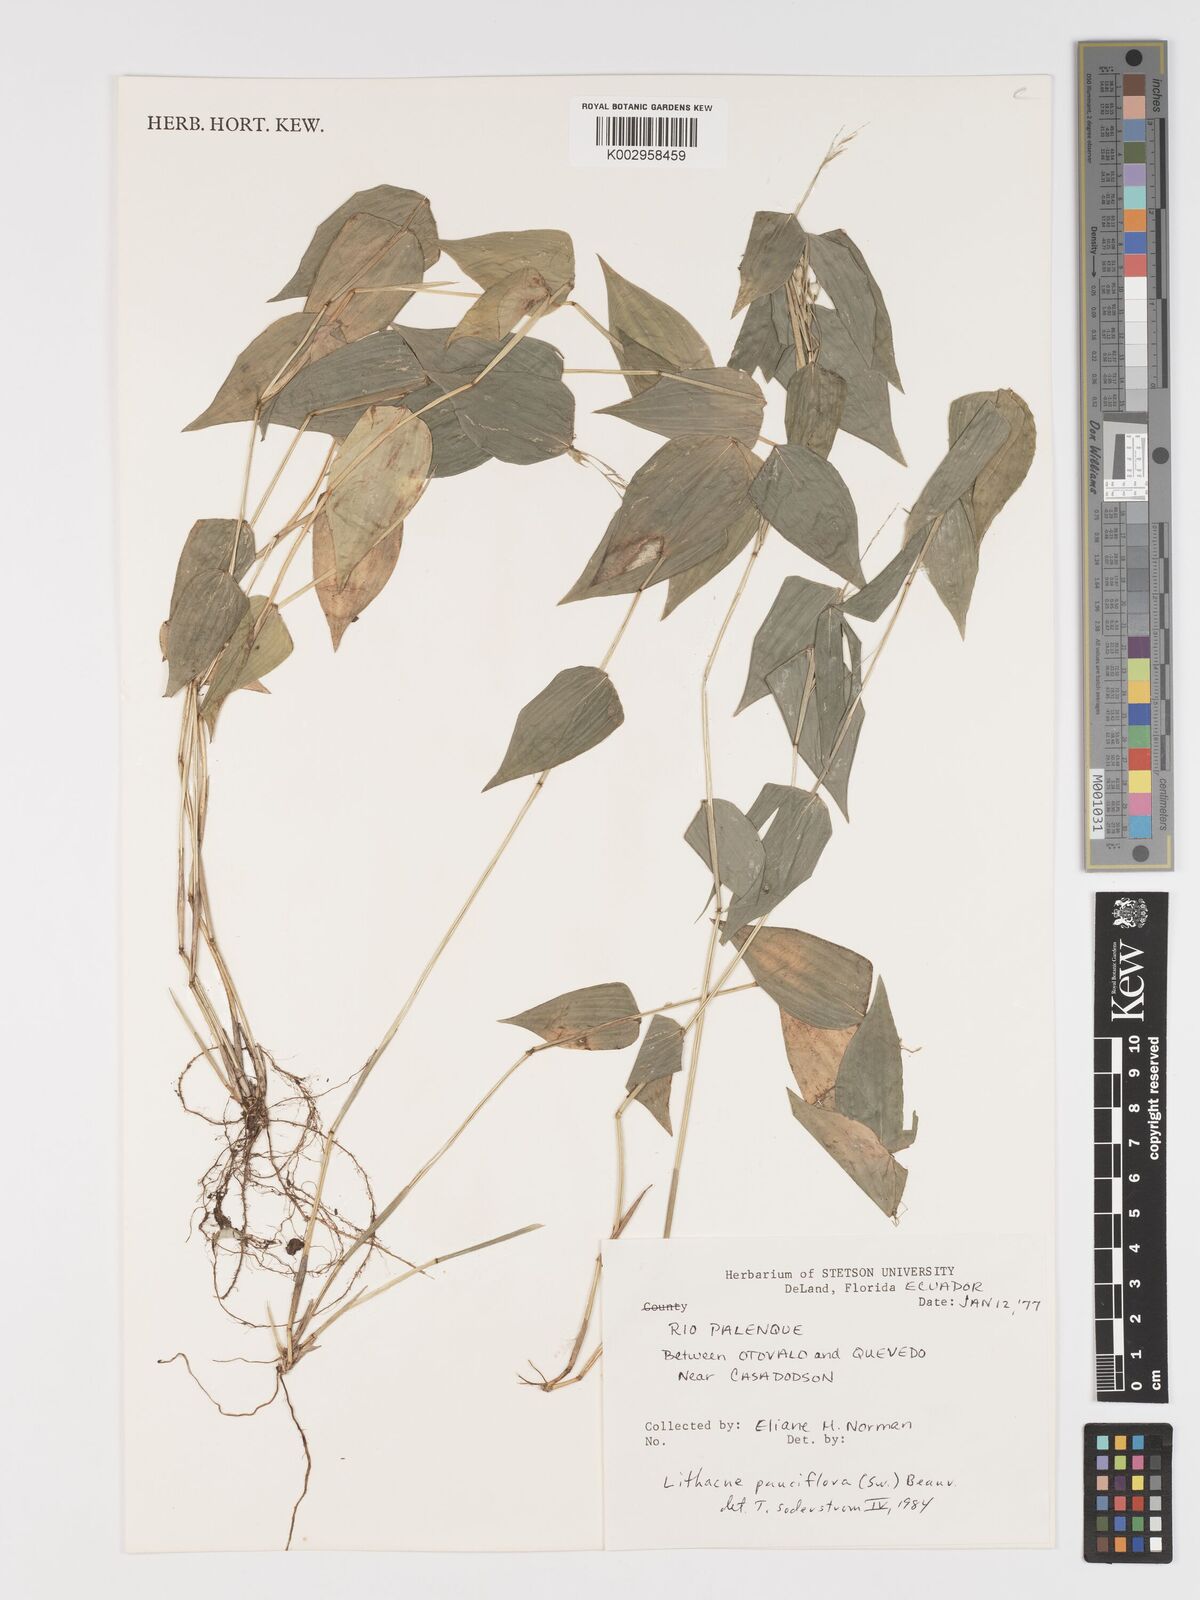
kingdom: Plantae
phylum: Tracheophyta
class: Liliopsida
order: Poales
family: Poaceae
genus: Lithachne
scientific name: Lithachne pauciflora
